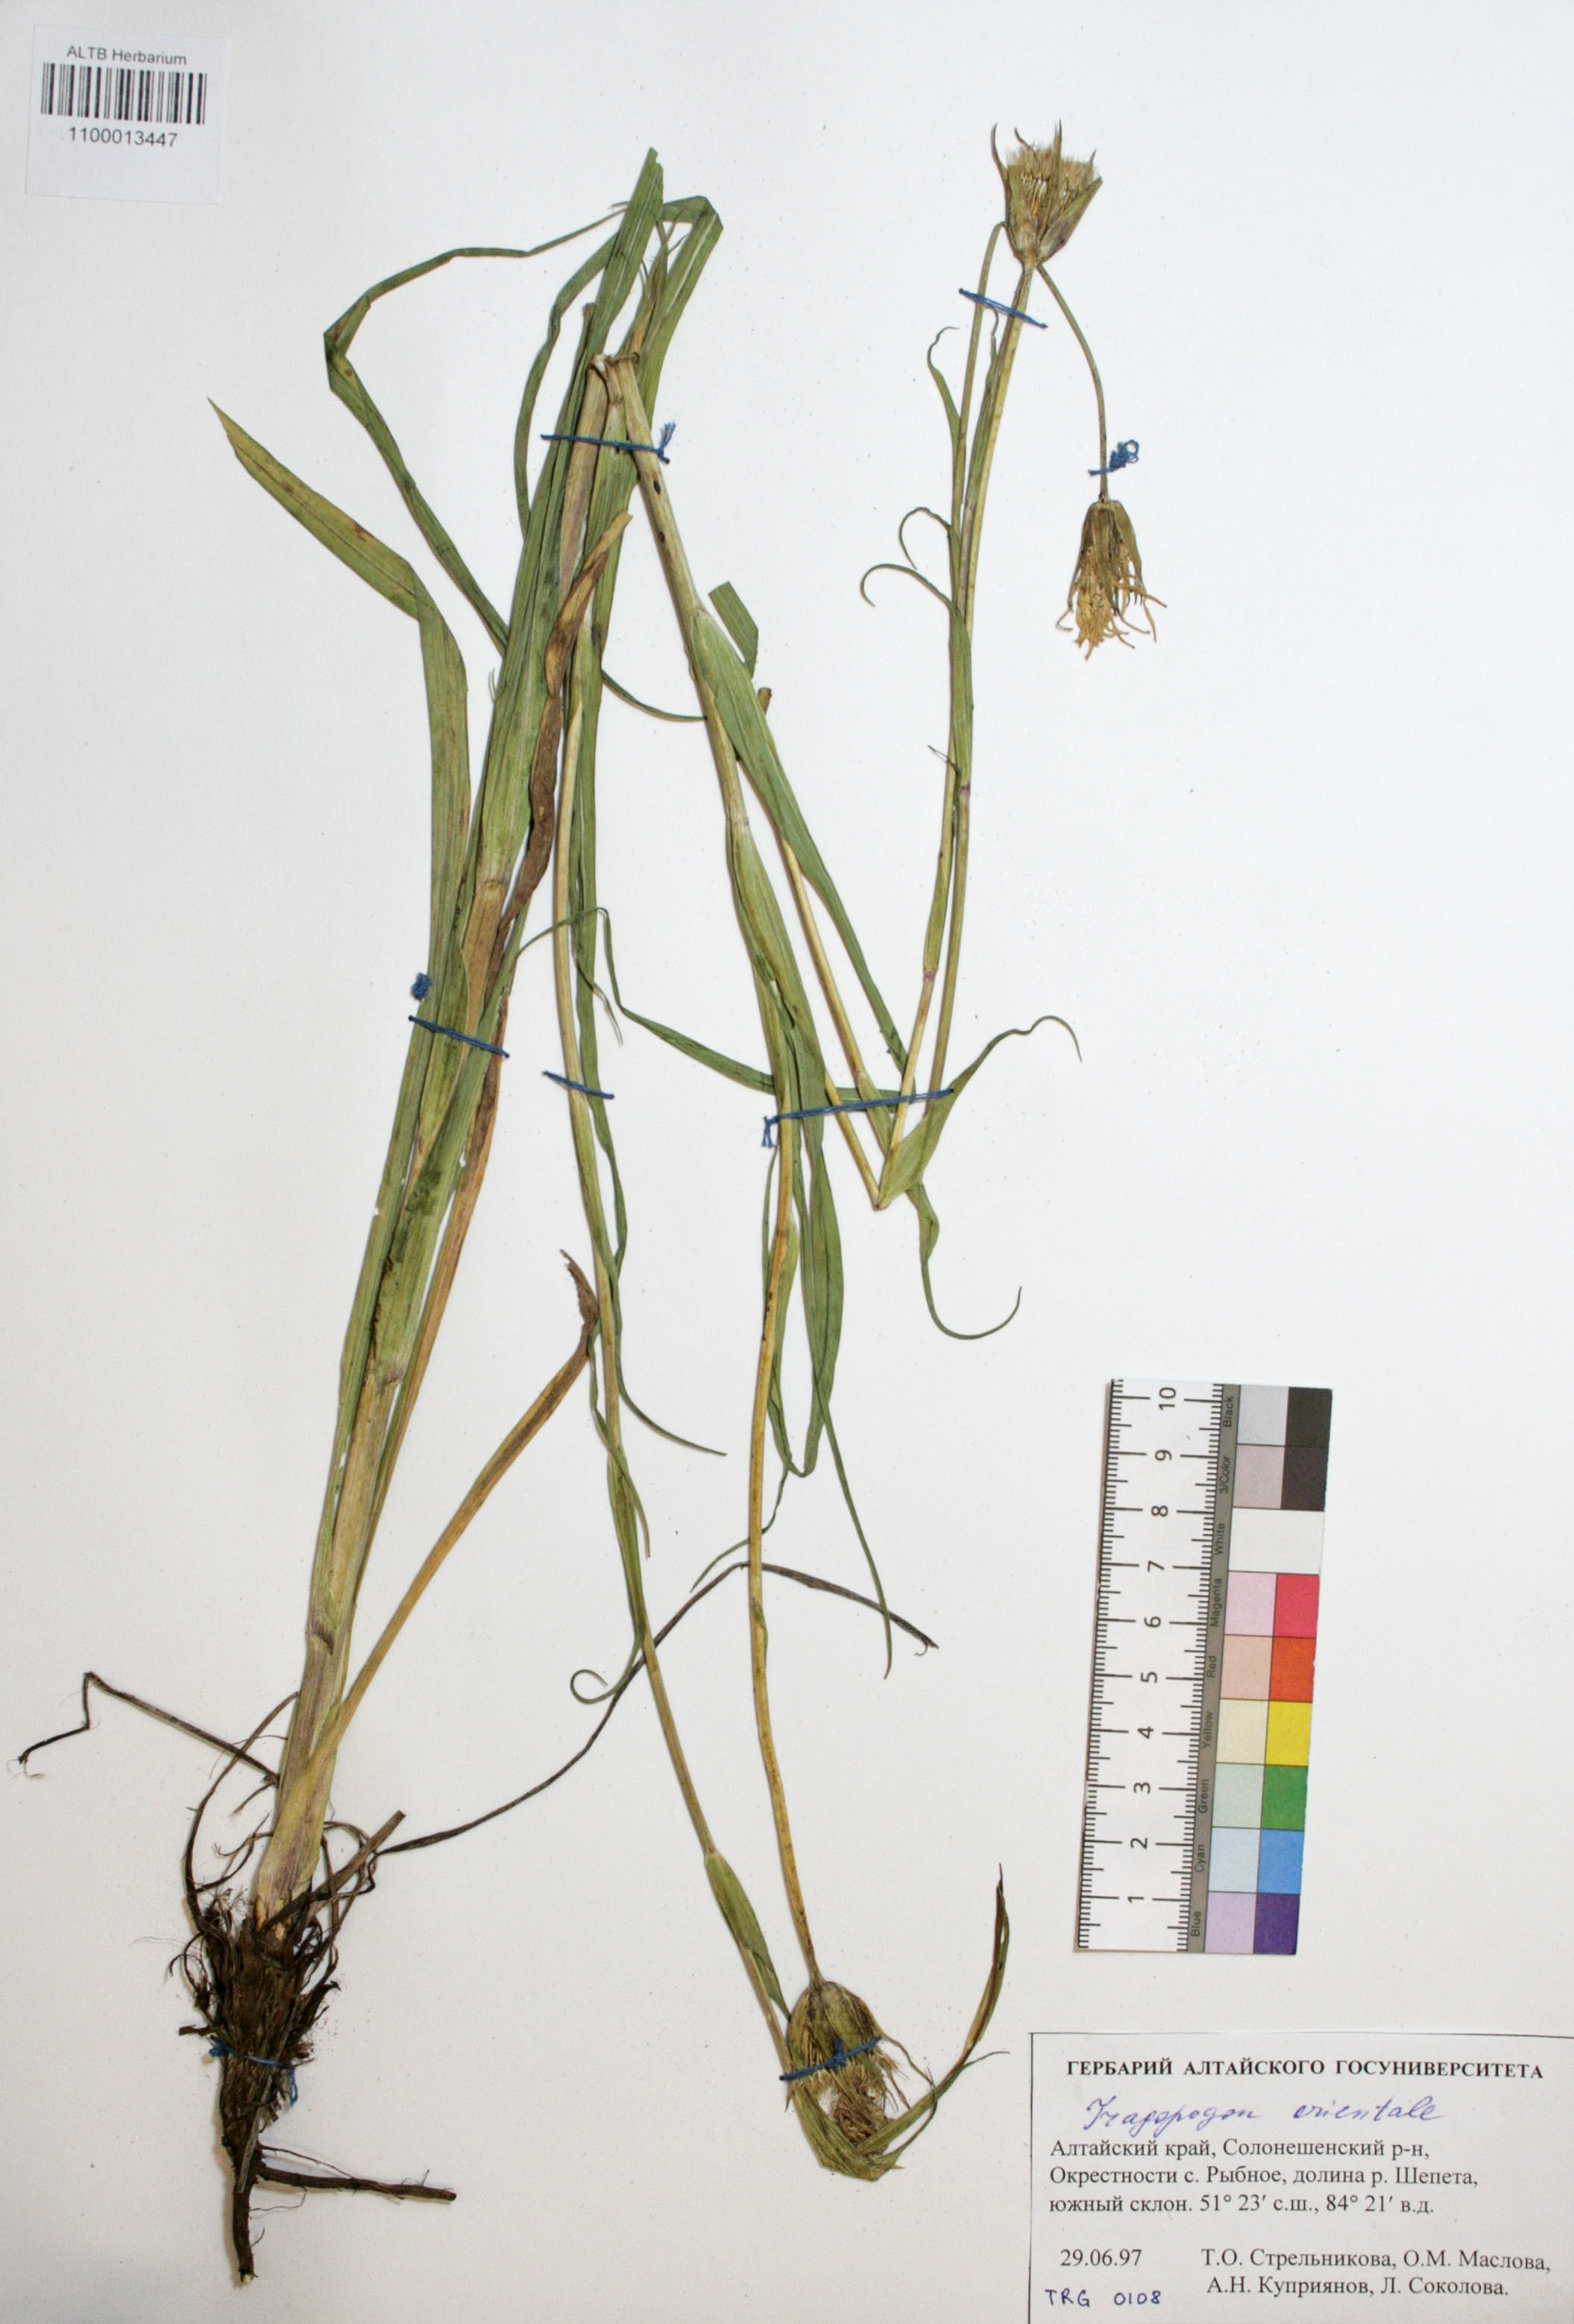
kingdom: Plantae
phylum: Tracheophyta
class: Magnoliopsida
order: Asterales
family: Asteraceae
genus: Tragopogon
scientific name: Tragopogon orientalis
